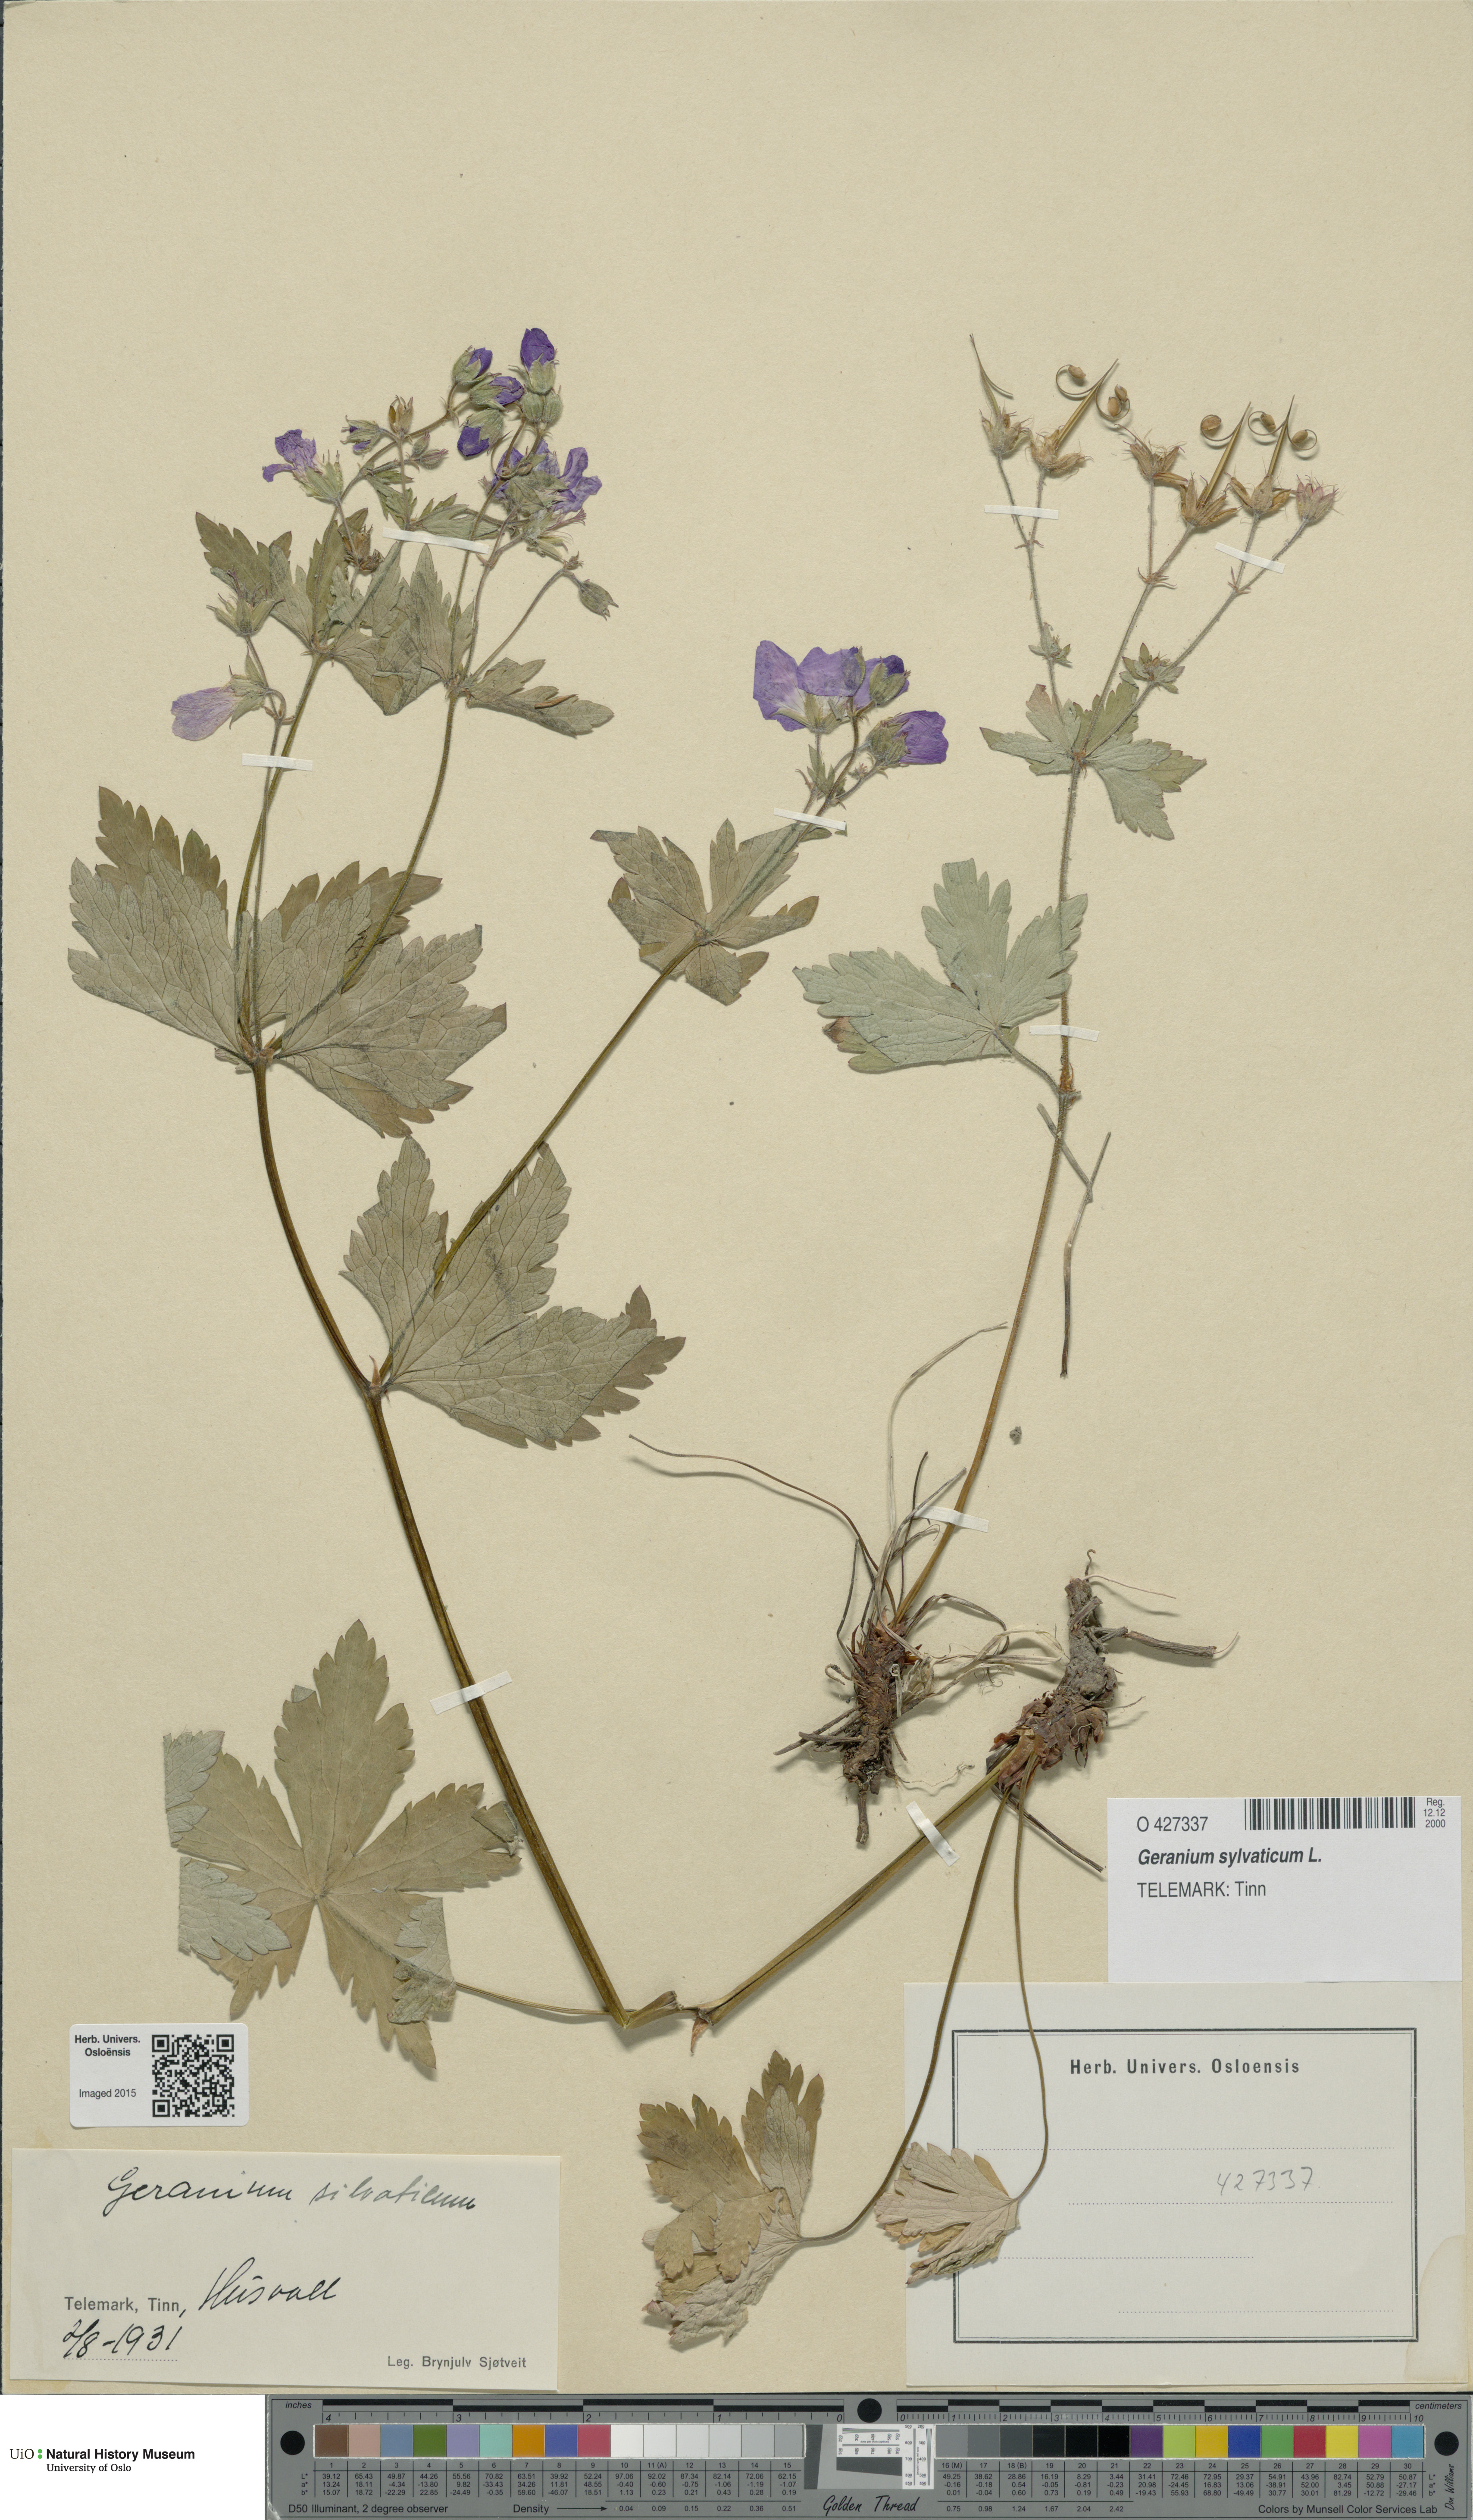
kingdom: Plantae
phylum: Tracheophyta
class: Magnoliopsida
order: Geraniales
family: Geraniaceae
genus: Geranium
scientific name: Geranium sylvaticum
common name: Wood crane's-bill
